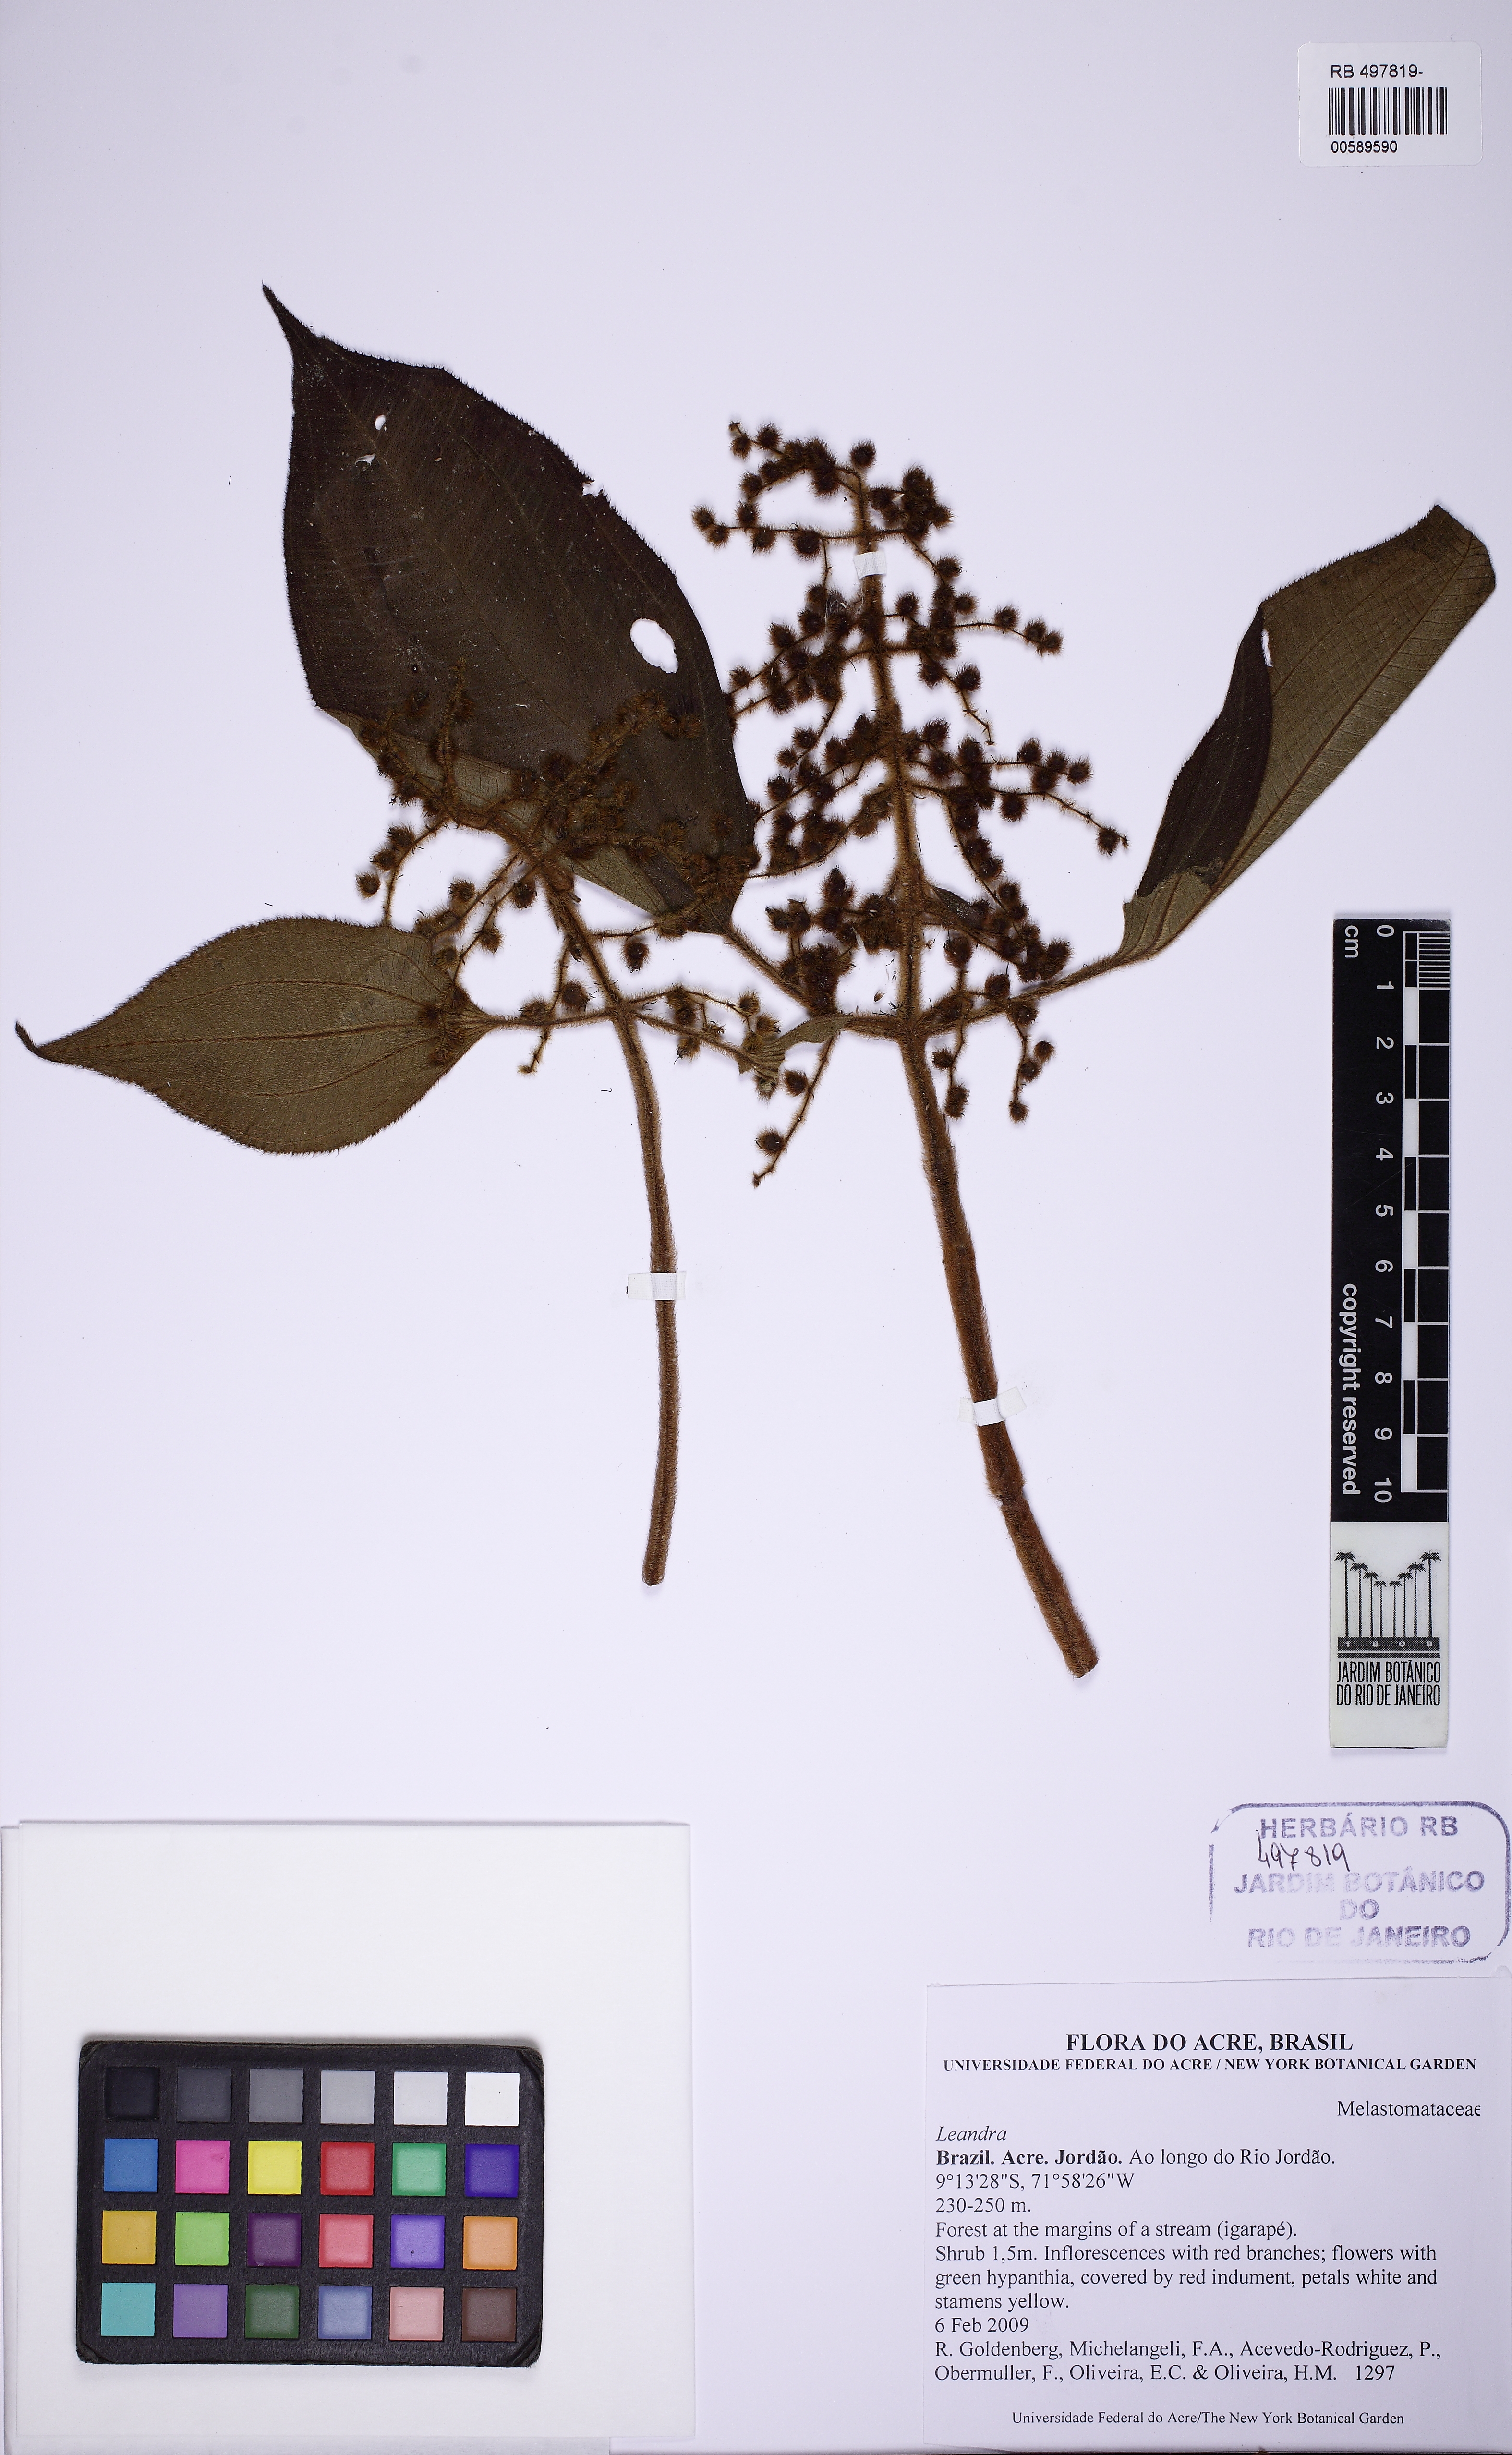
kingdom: Plantae
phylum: Tracheophyta
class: Magnoliopsida
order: Myrtales
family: Melastomataceae
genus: Miconia
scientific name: Miconia
